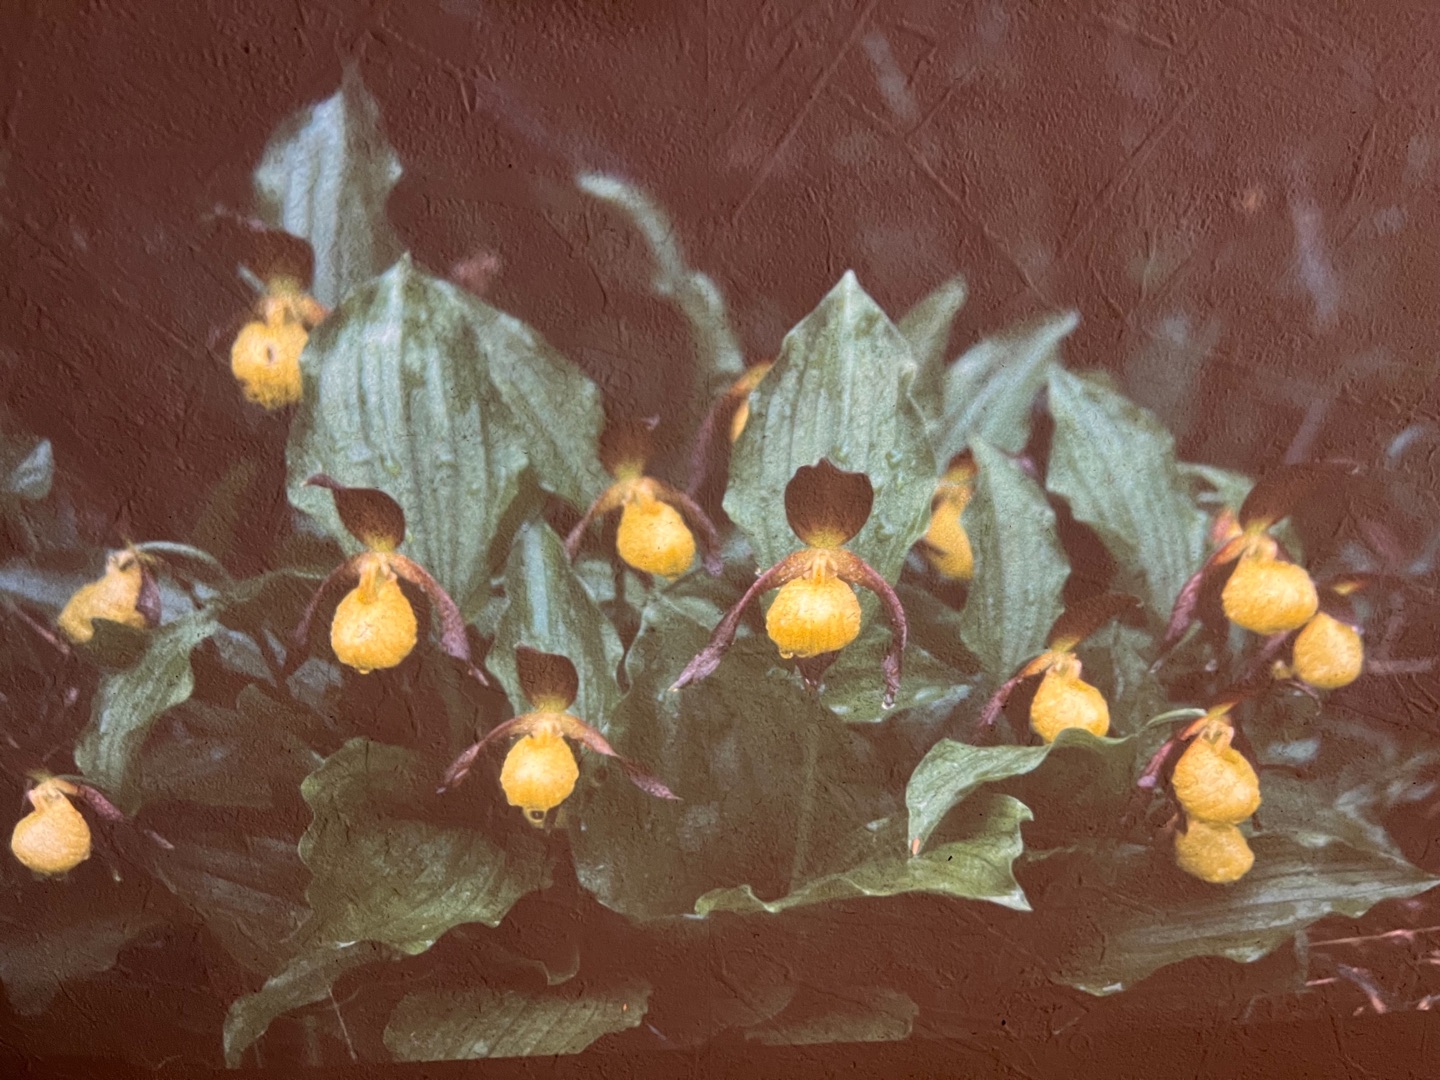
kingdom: Plantae
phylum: Tracheophyta
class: Liliopsida
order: Asparagales
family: Orchidaceae
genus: Cypripedium
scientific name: Cypripedium calceolus
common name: Fruesko
